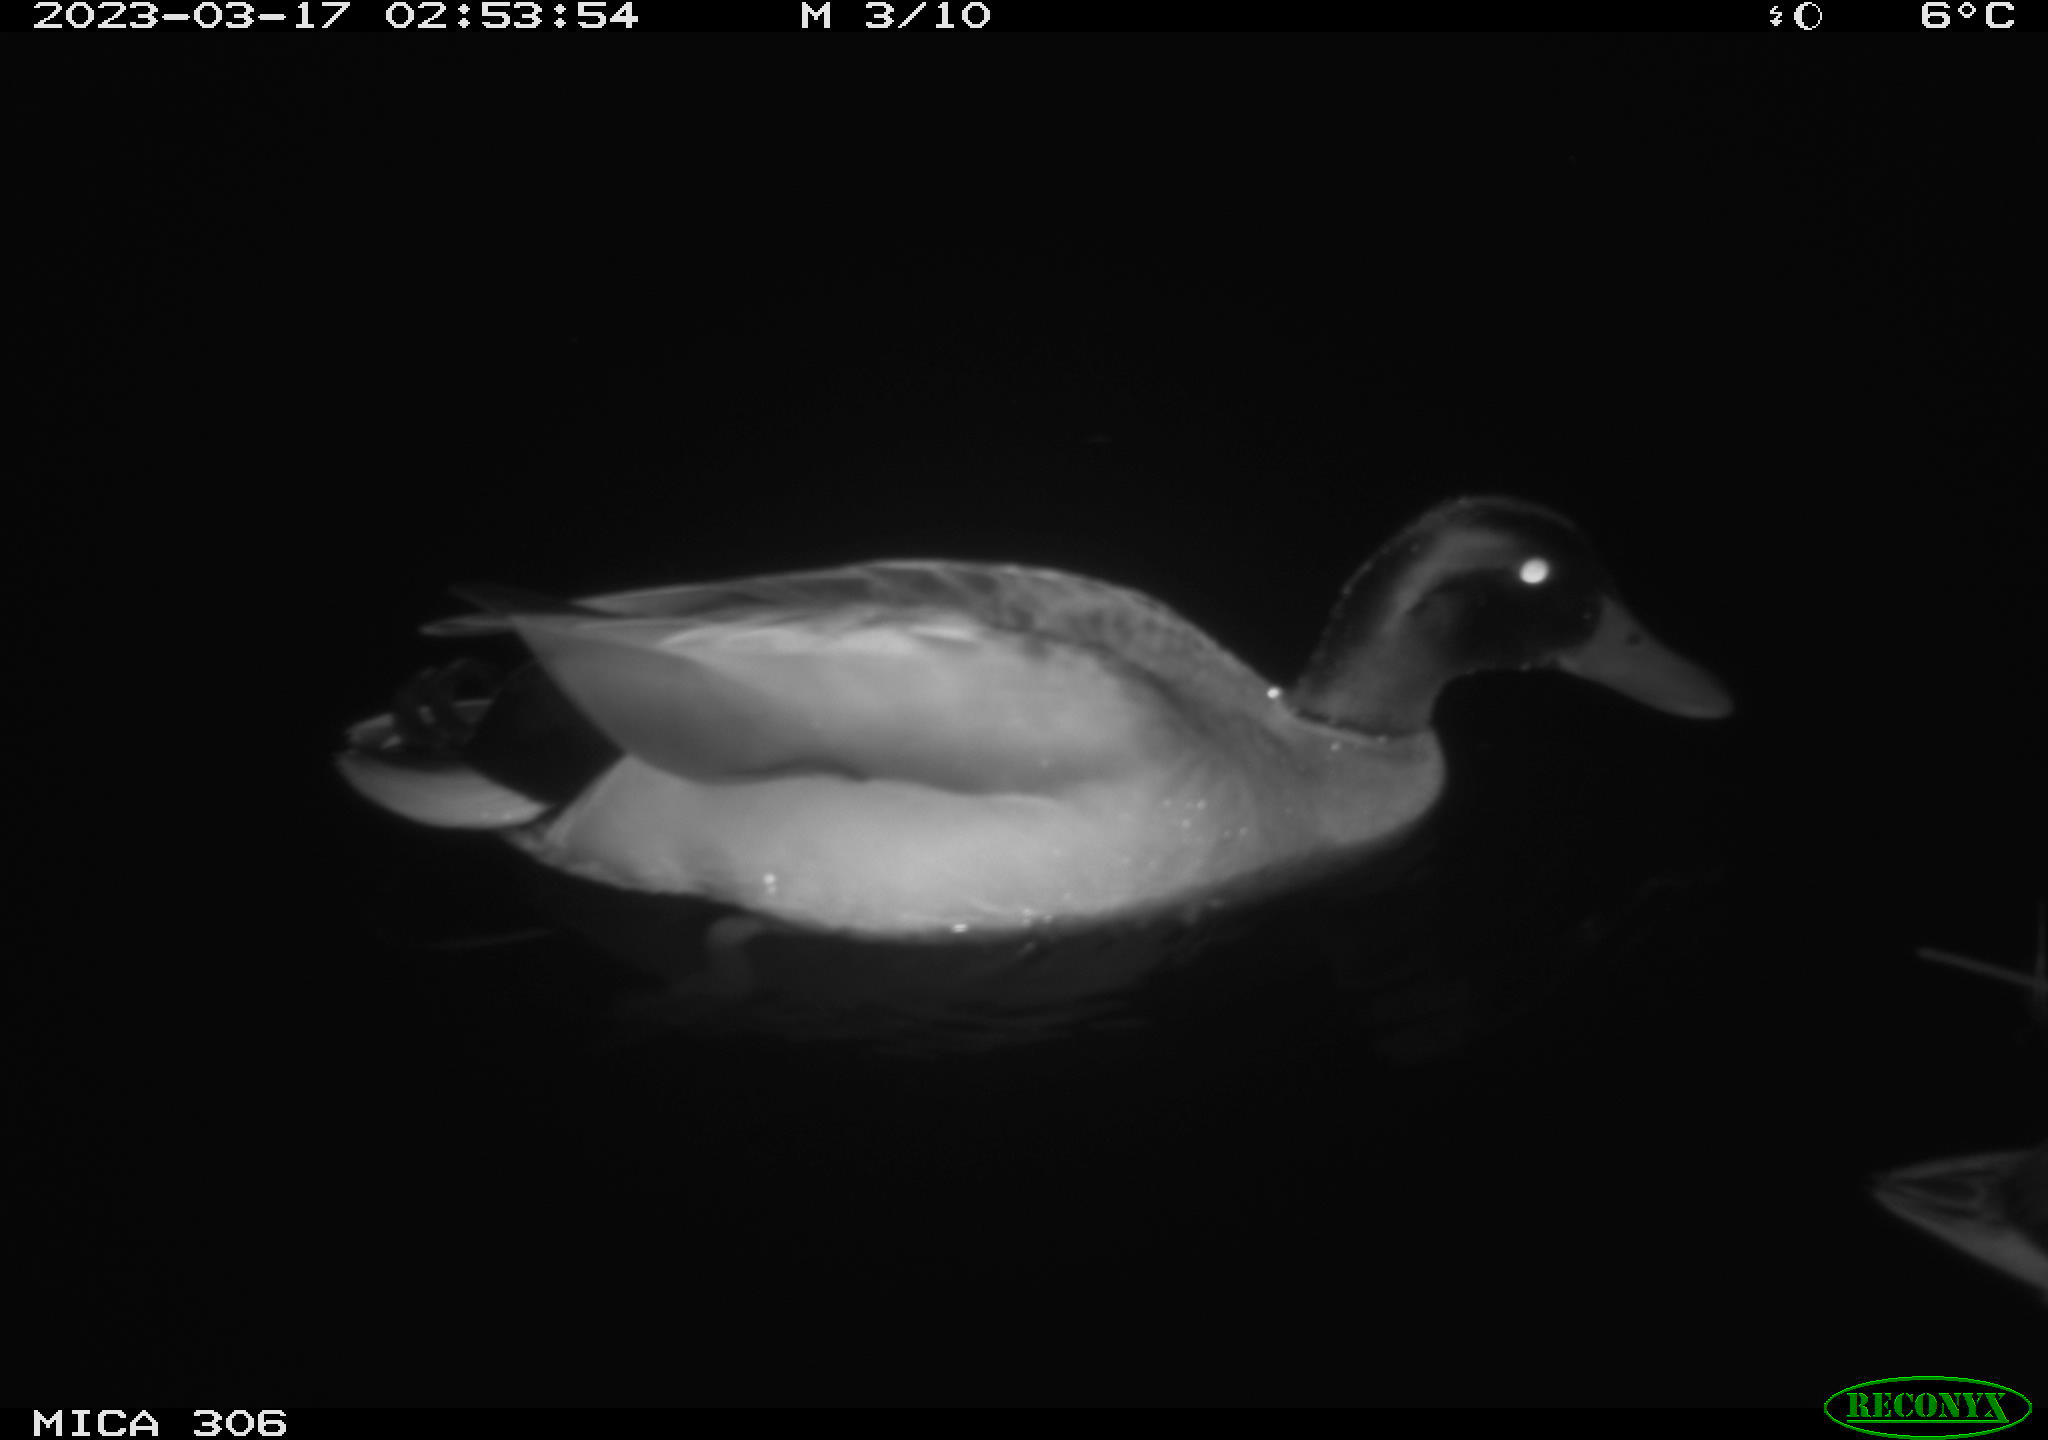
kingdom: Animalia
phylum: Chordata
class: Aves
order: Anseriformes
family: Anatidae
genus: Anas
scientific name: Anas
